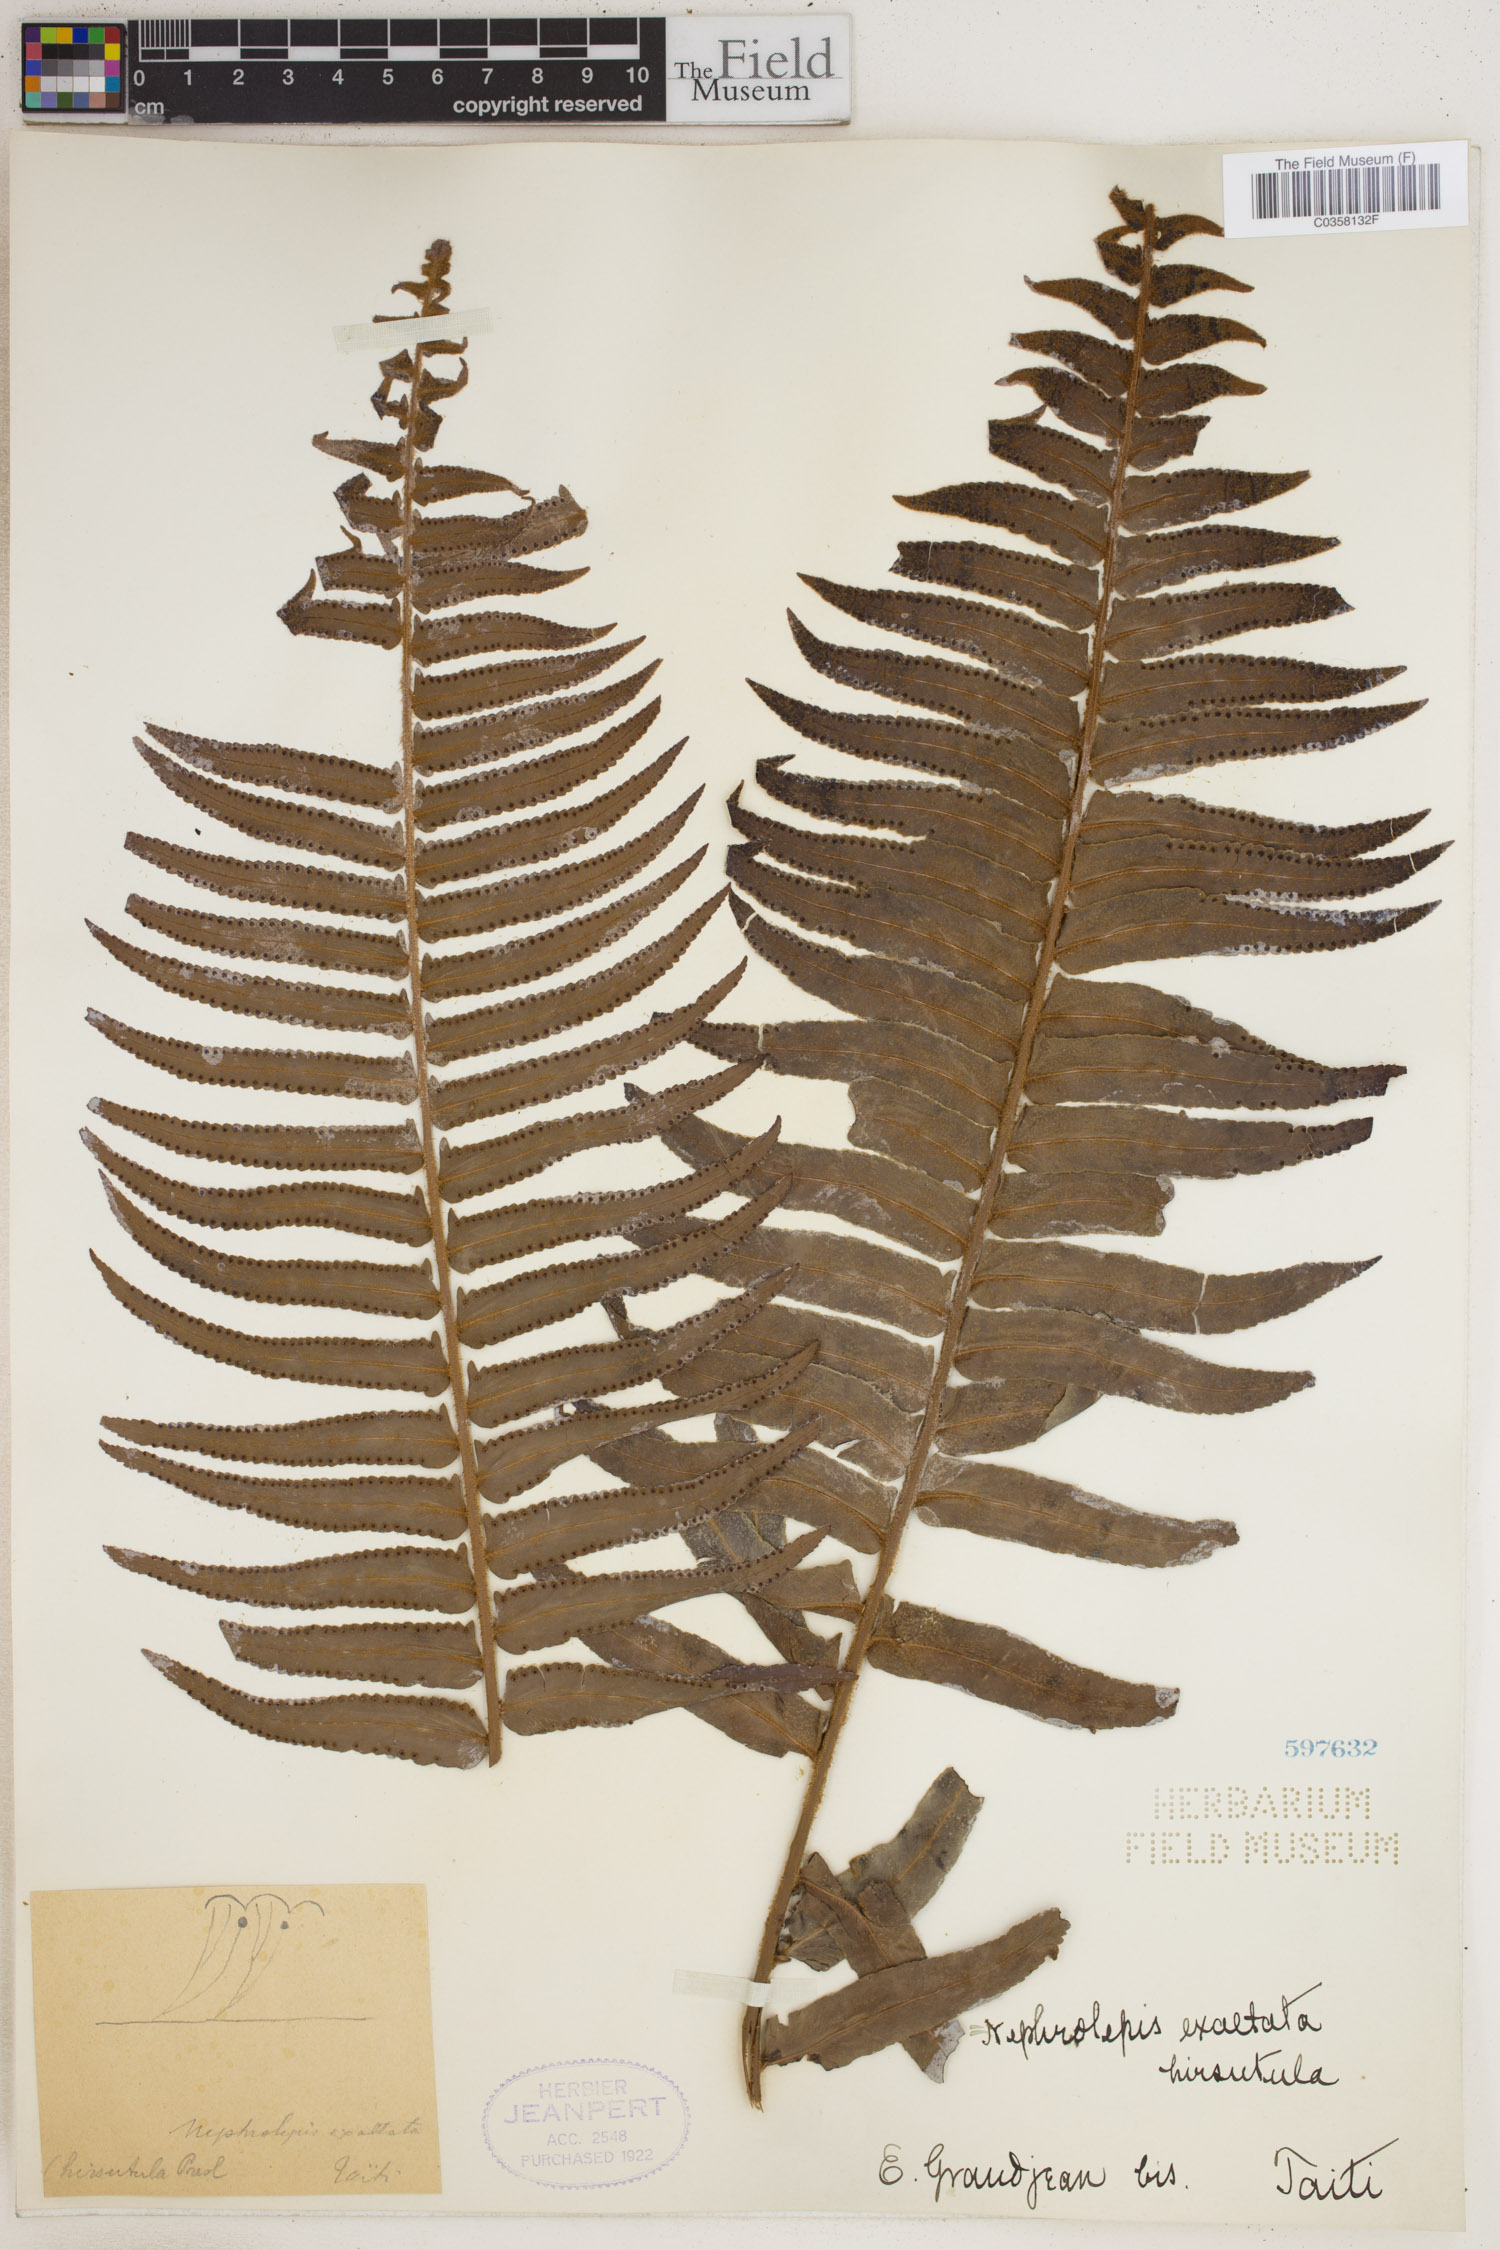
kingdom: Plantae
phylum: Tracheophyta
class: Polypodiopsida
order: Polypodiales
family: Nephrolepidaceae
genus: Nephrolepis
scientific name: Nephrolepis hirsutula
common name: Asian sword fern
